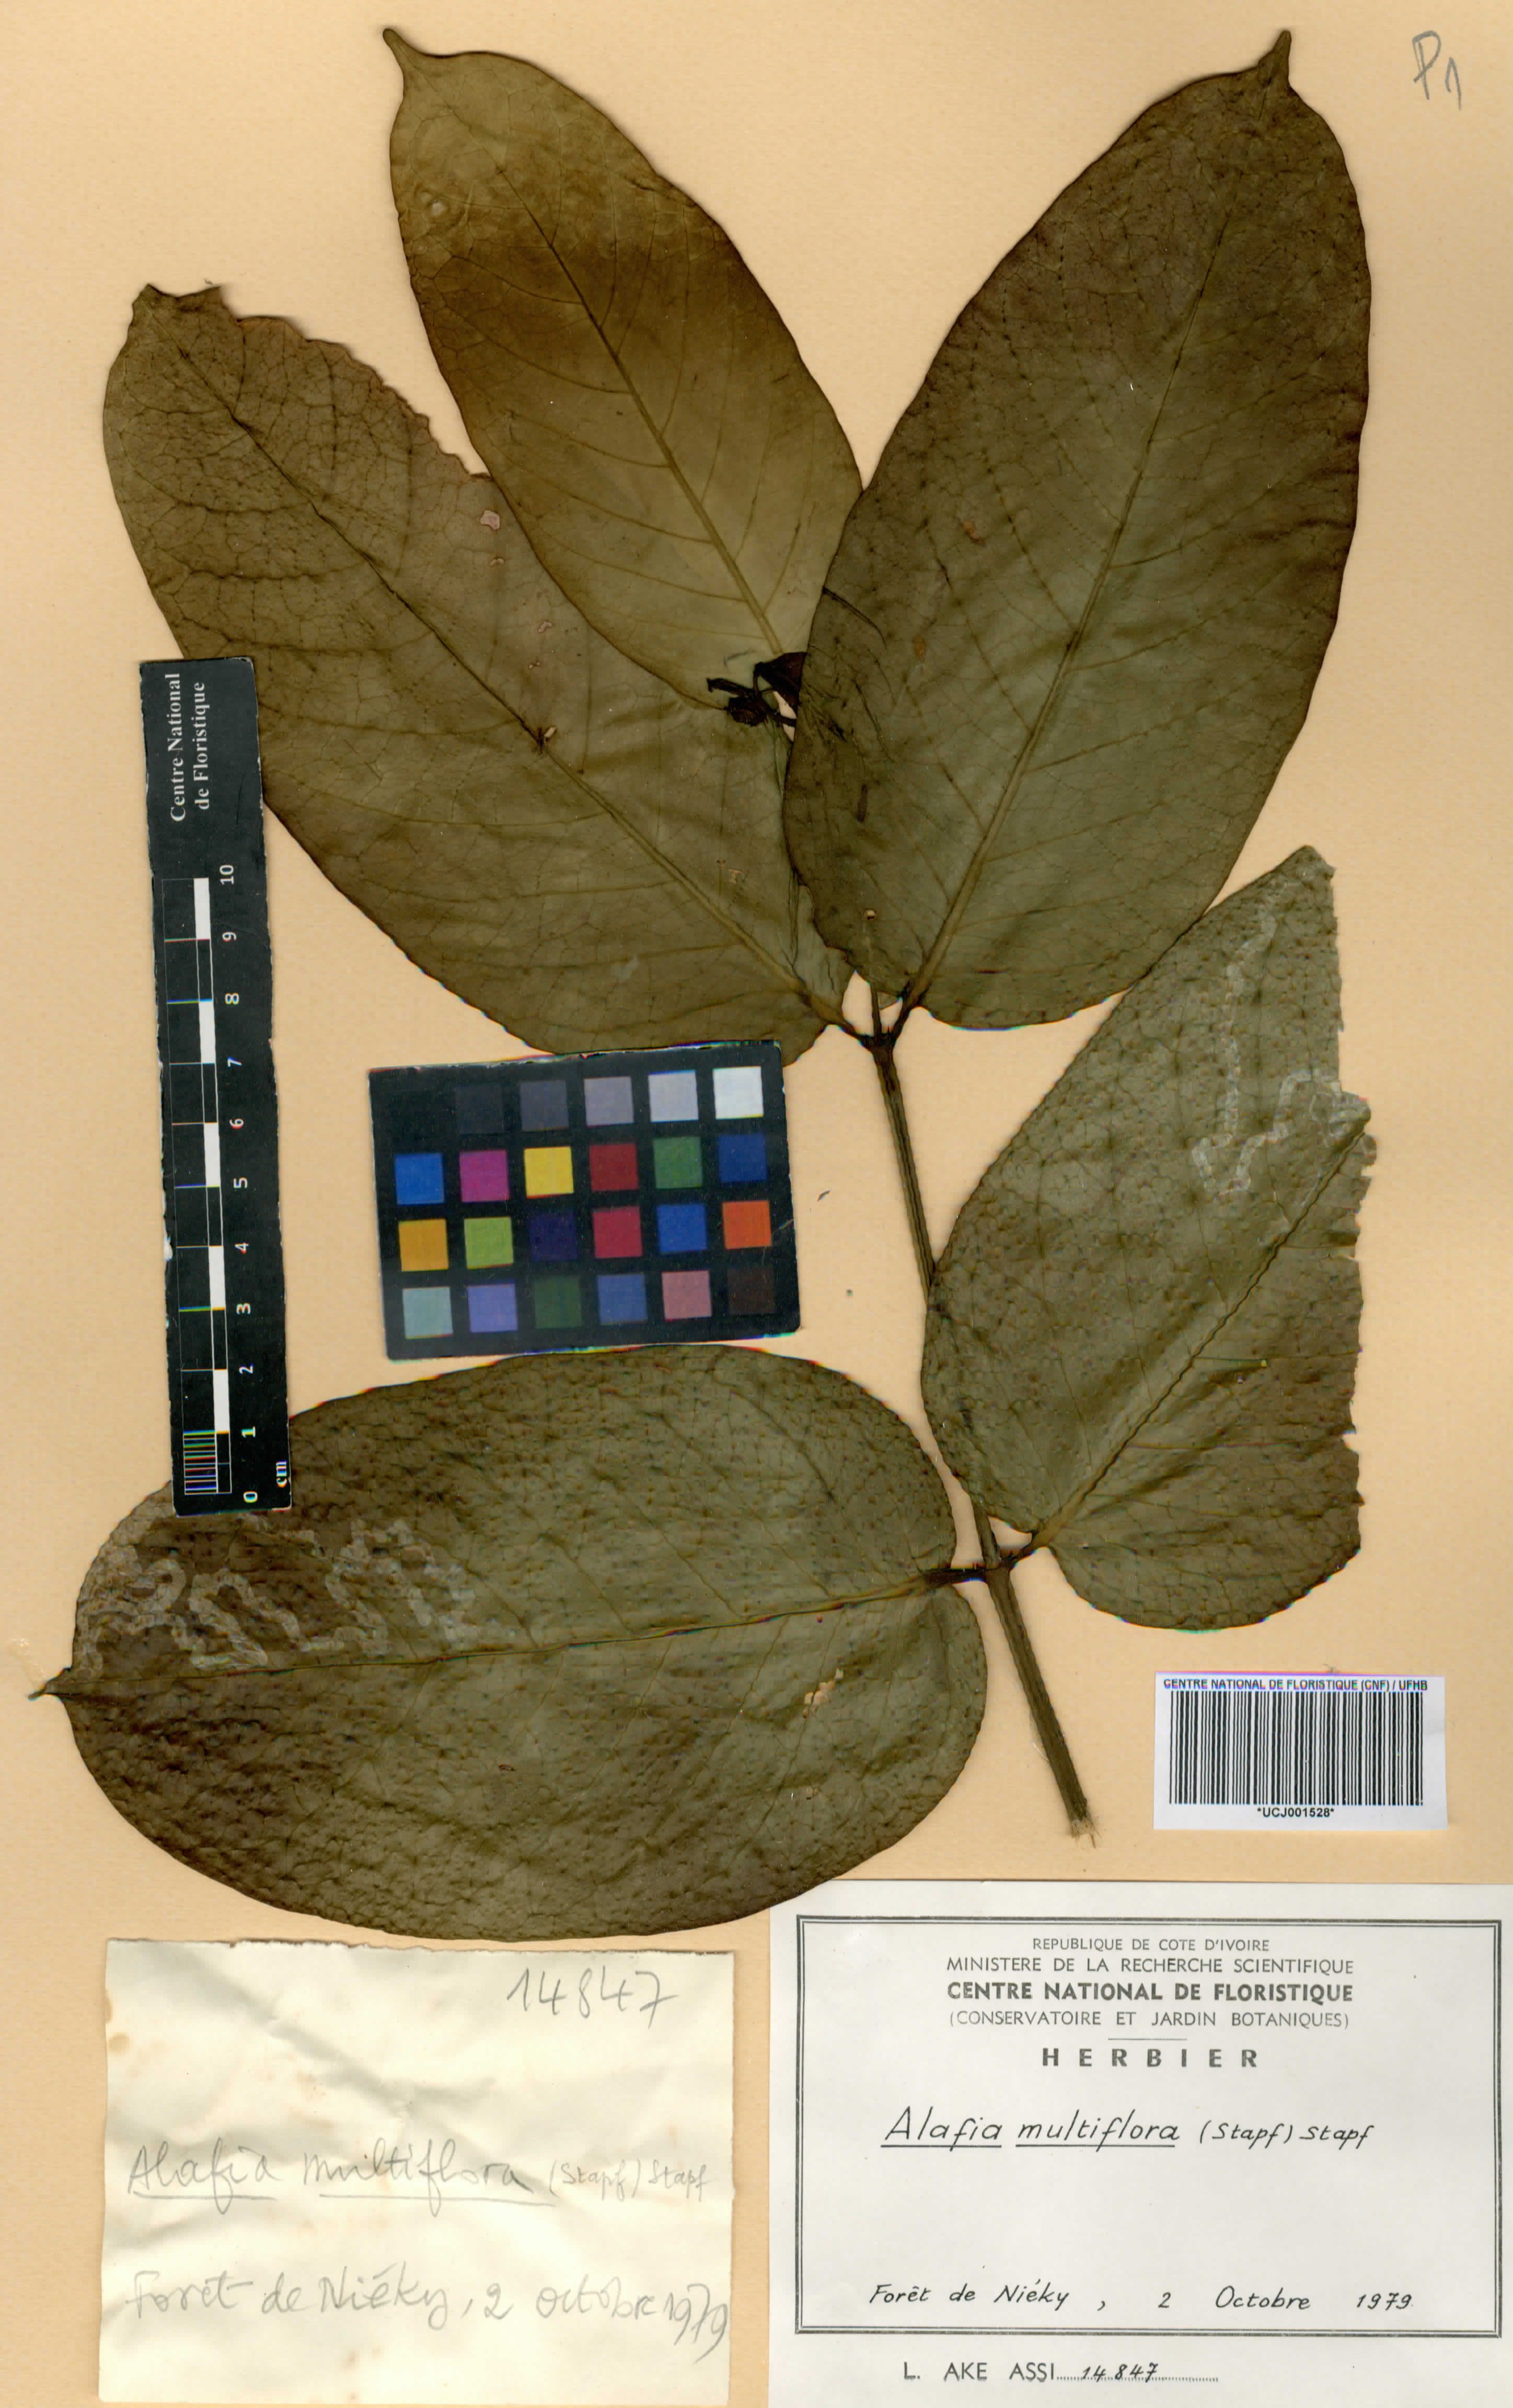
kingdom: Plantae
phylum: Tracheophyta
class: Magnoliopsida
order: Gentianales
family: Apocynaceae
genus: Alafia
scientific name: Alafia multiflora
